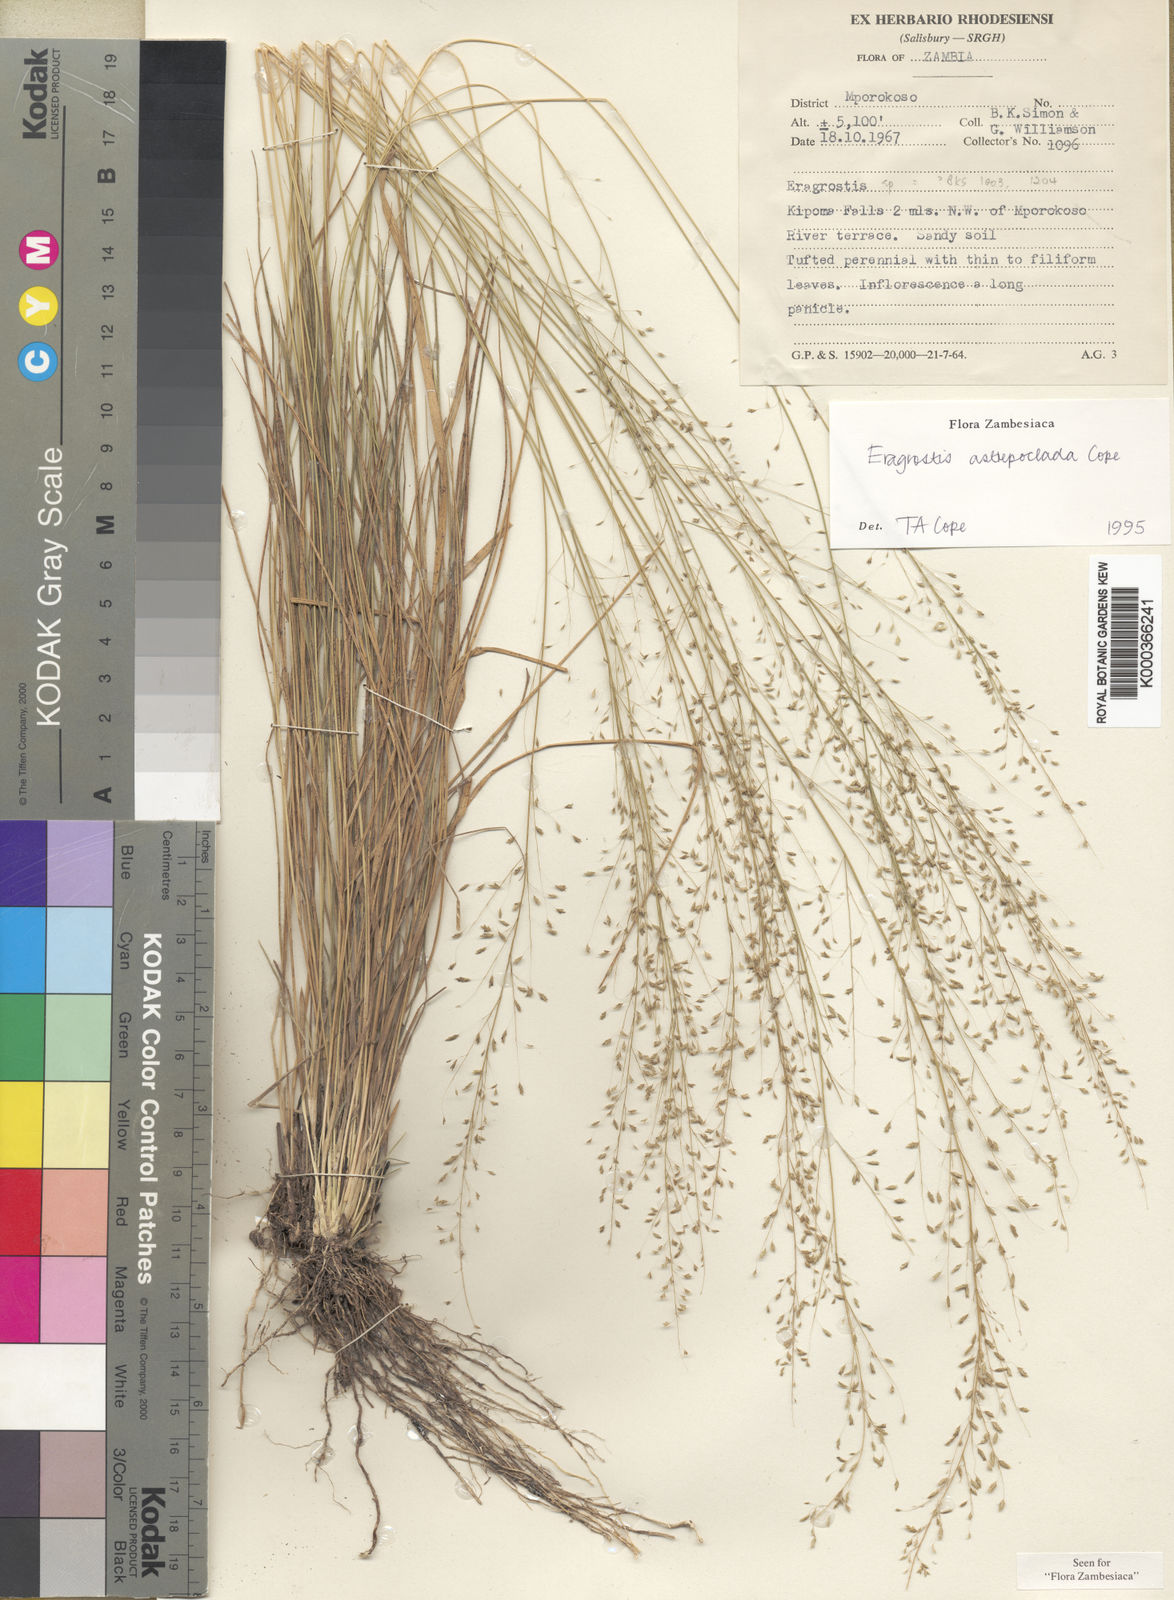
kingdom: Plantae
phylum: Tracheophyta
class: Liliopsida
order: Poales
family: Poaceae
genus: Eragrostis
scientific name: Eragrostis astreptoclada
